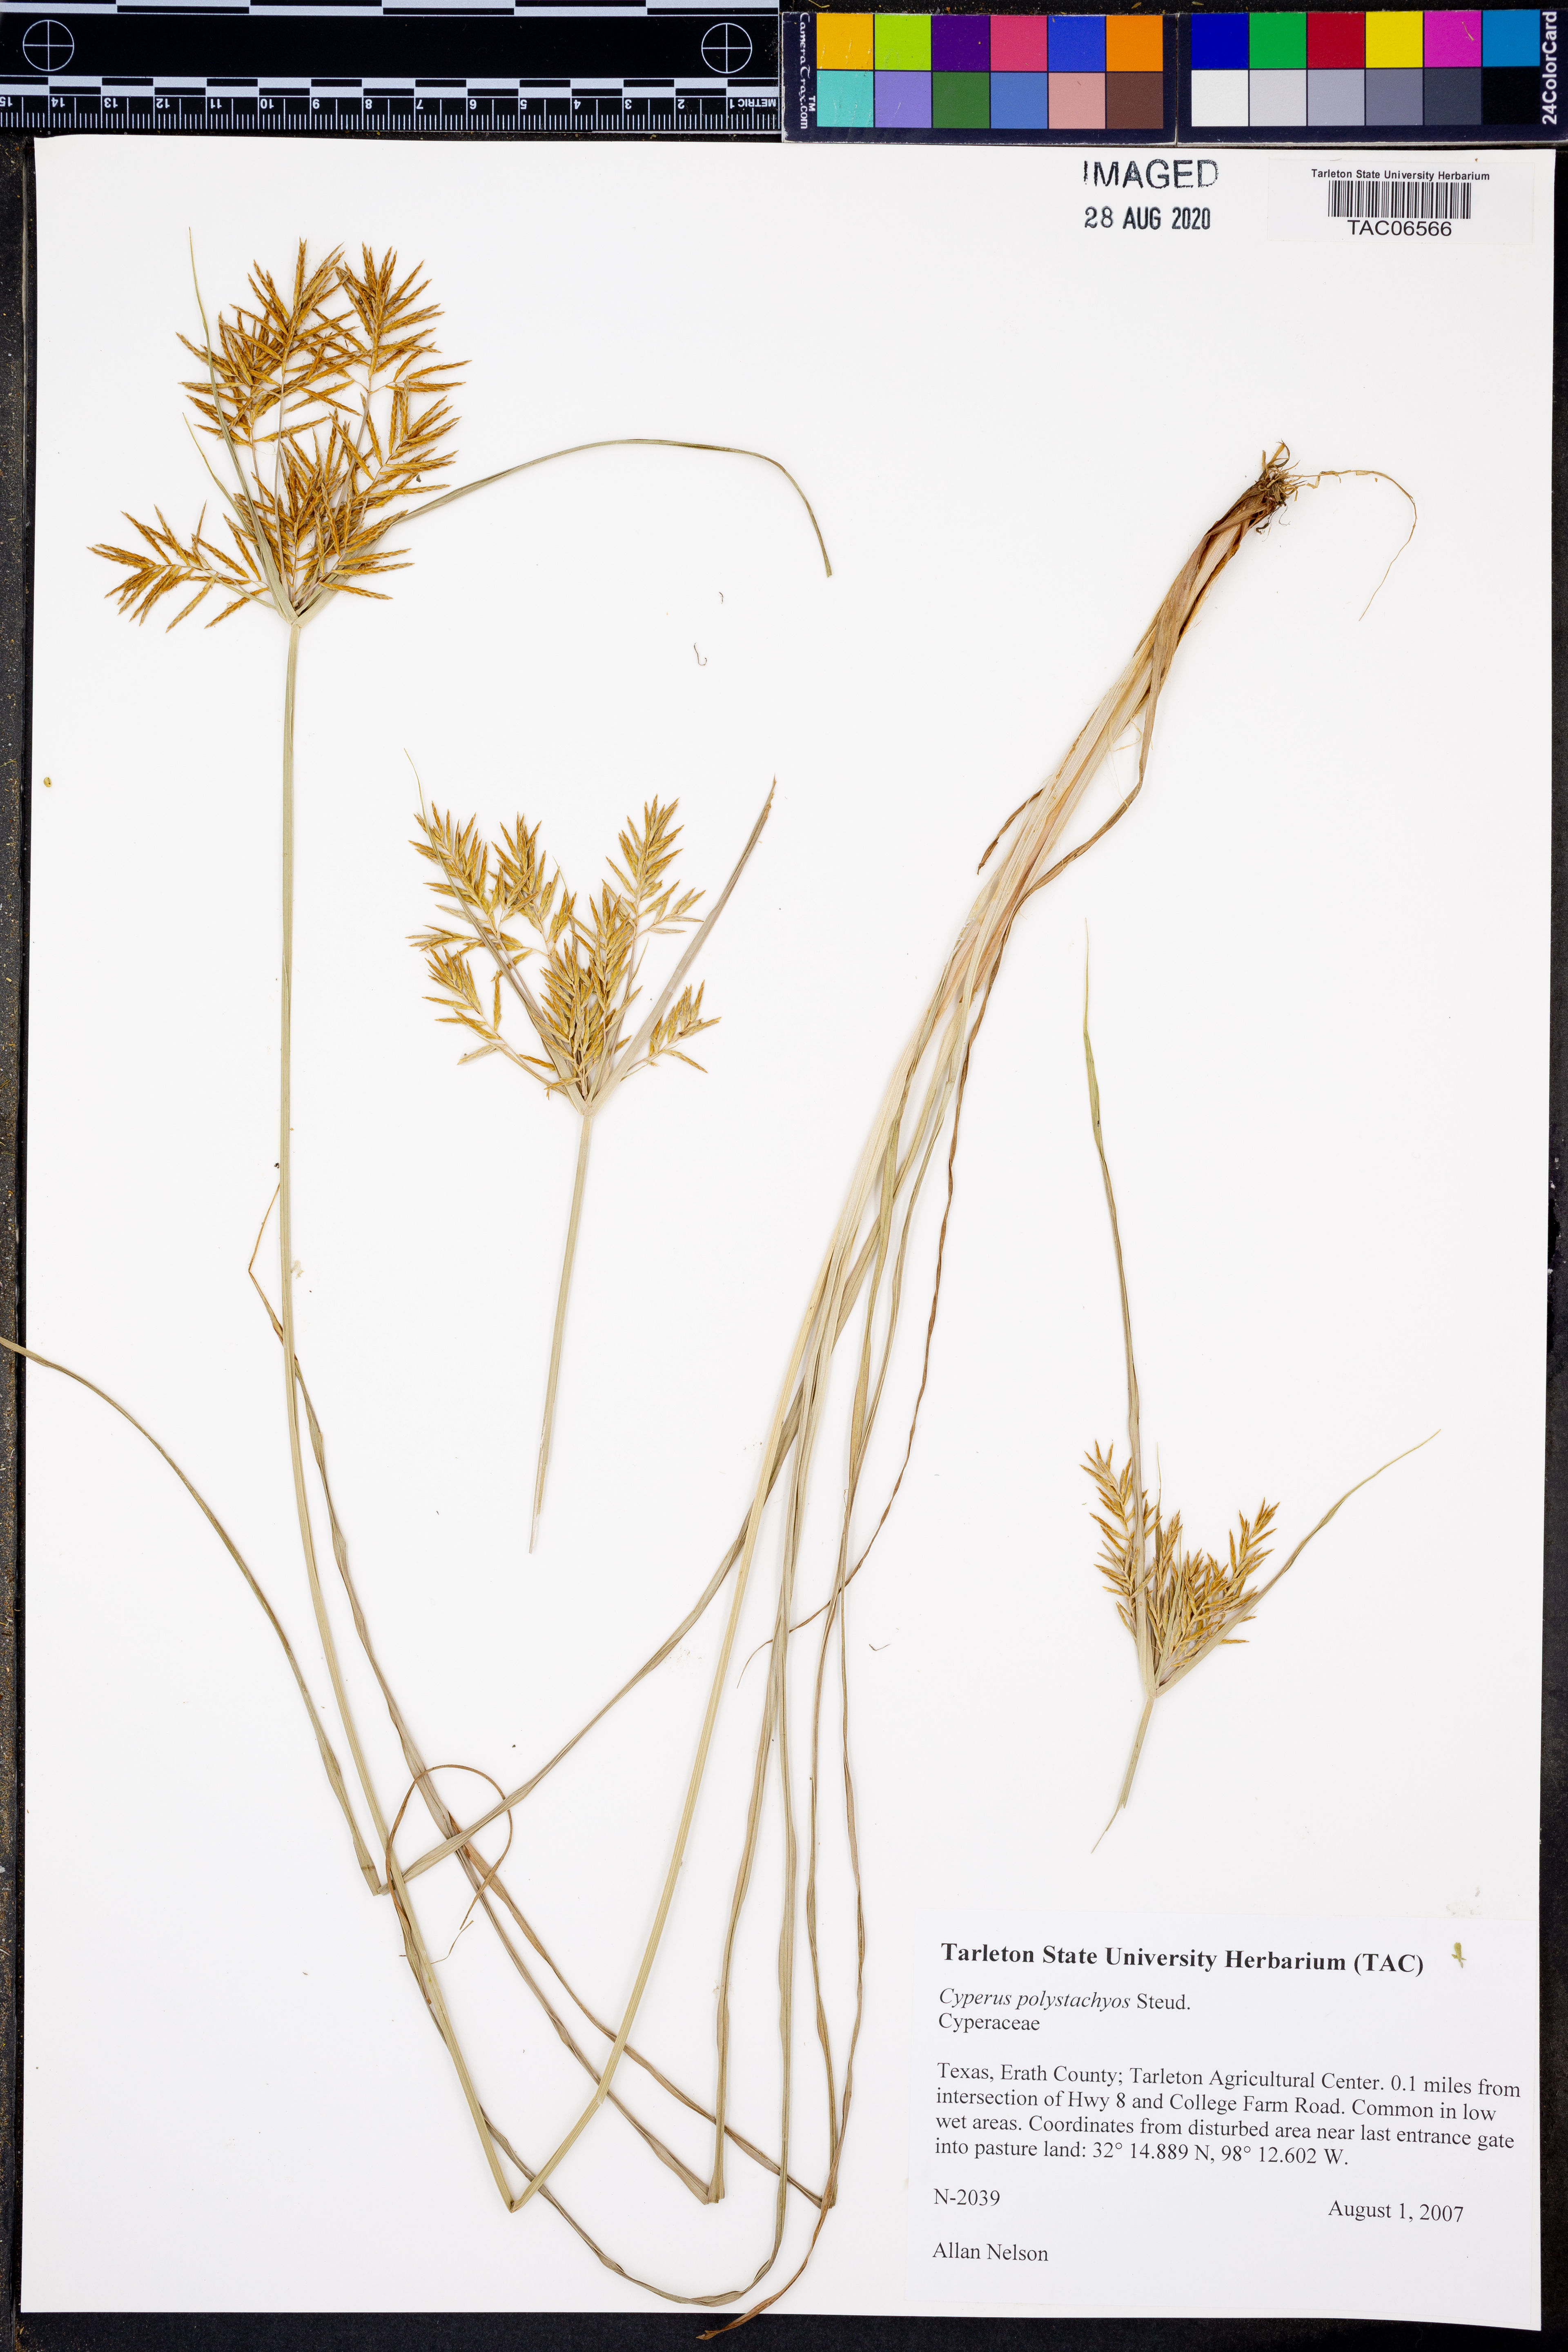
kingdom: Plantae
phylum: Tracheophyta
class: Liliopsida
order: Poales
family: Cyperaceae
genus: Cyperus
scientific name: Cyperus polystachyos
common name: Bunchy flat sedge
